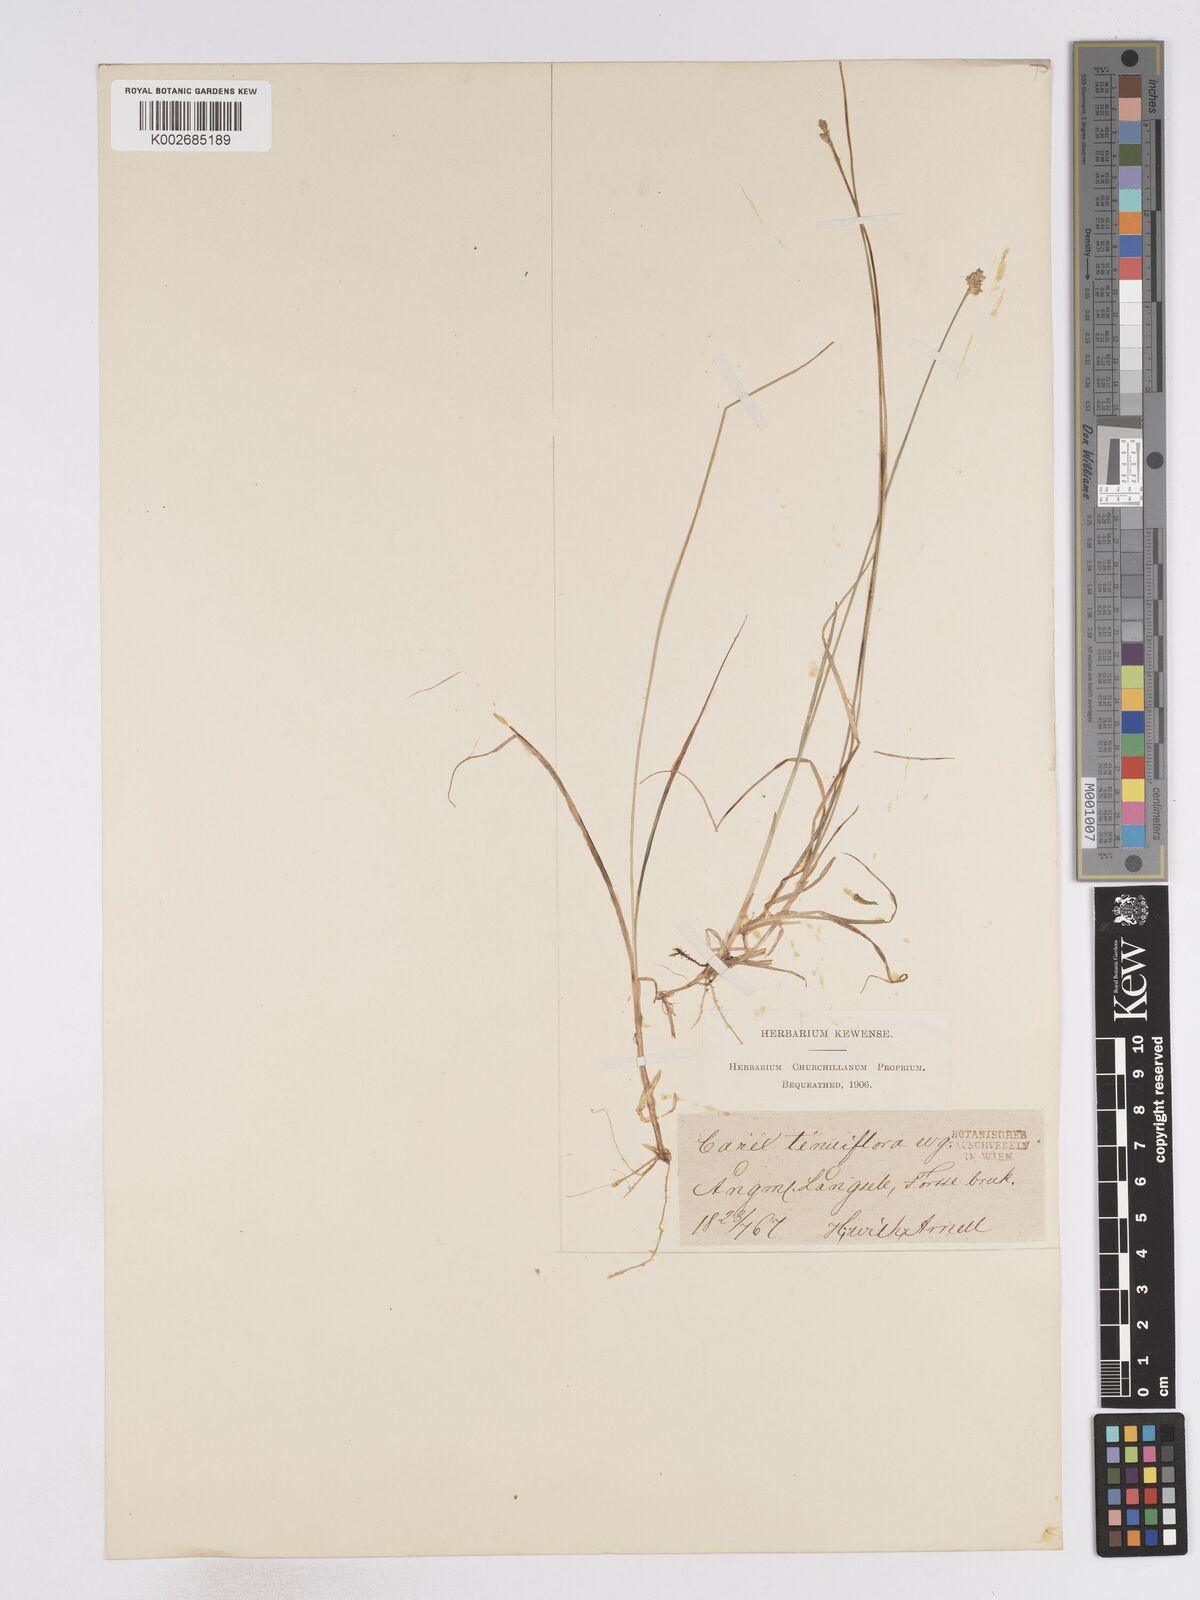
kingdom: Plantae
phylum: Tracheophyta
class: Liliopsida
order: Poales
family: Cyperaceae
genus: Carex
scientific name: Carex tenuiflora
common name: Sparse-flowered sedge
